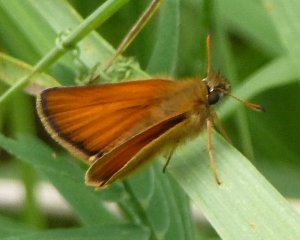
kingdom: Animalia
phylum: Arthropoda
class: Insecta
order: Lepidoptera
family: Hesperiidae
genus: Thymelicus
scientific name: Thymelicus lineola
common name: European Skipper
